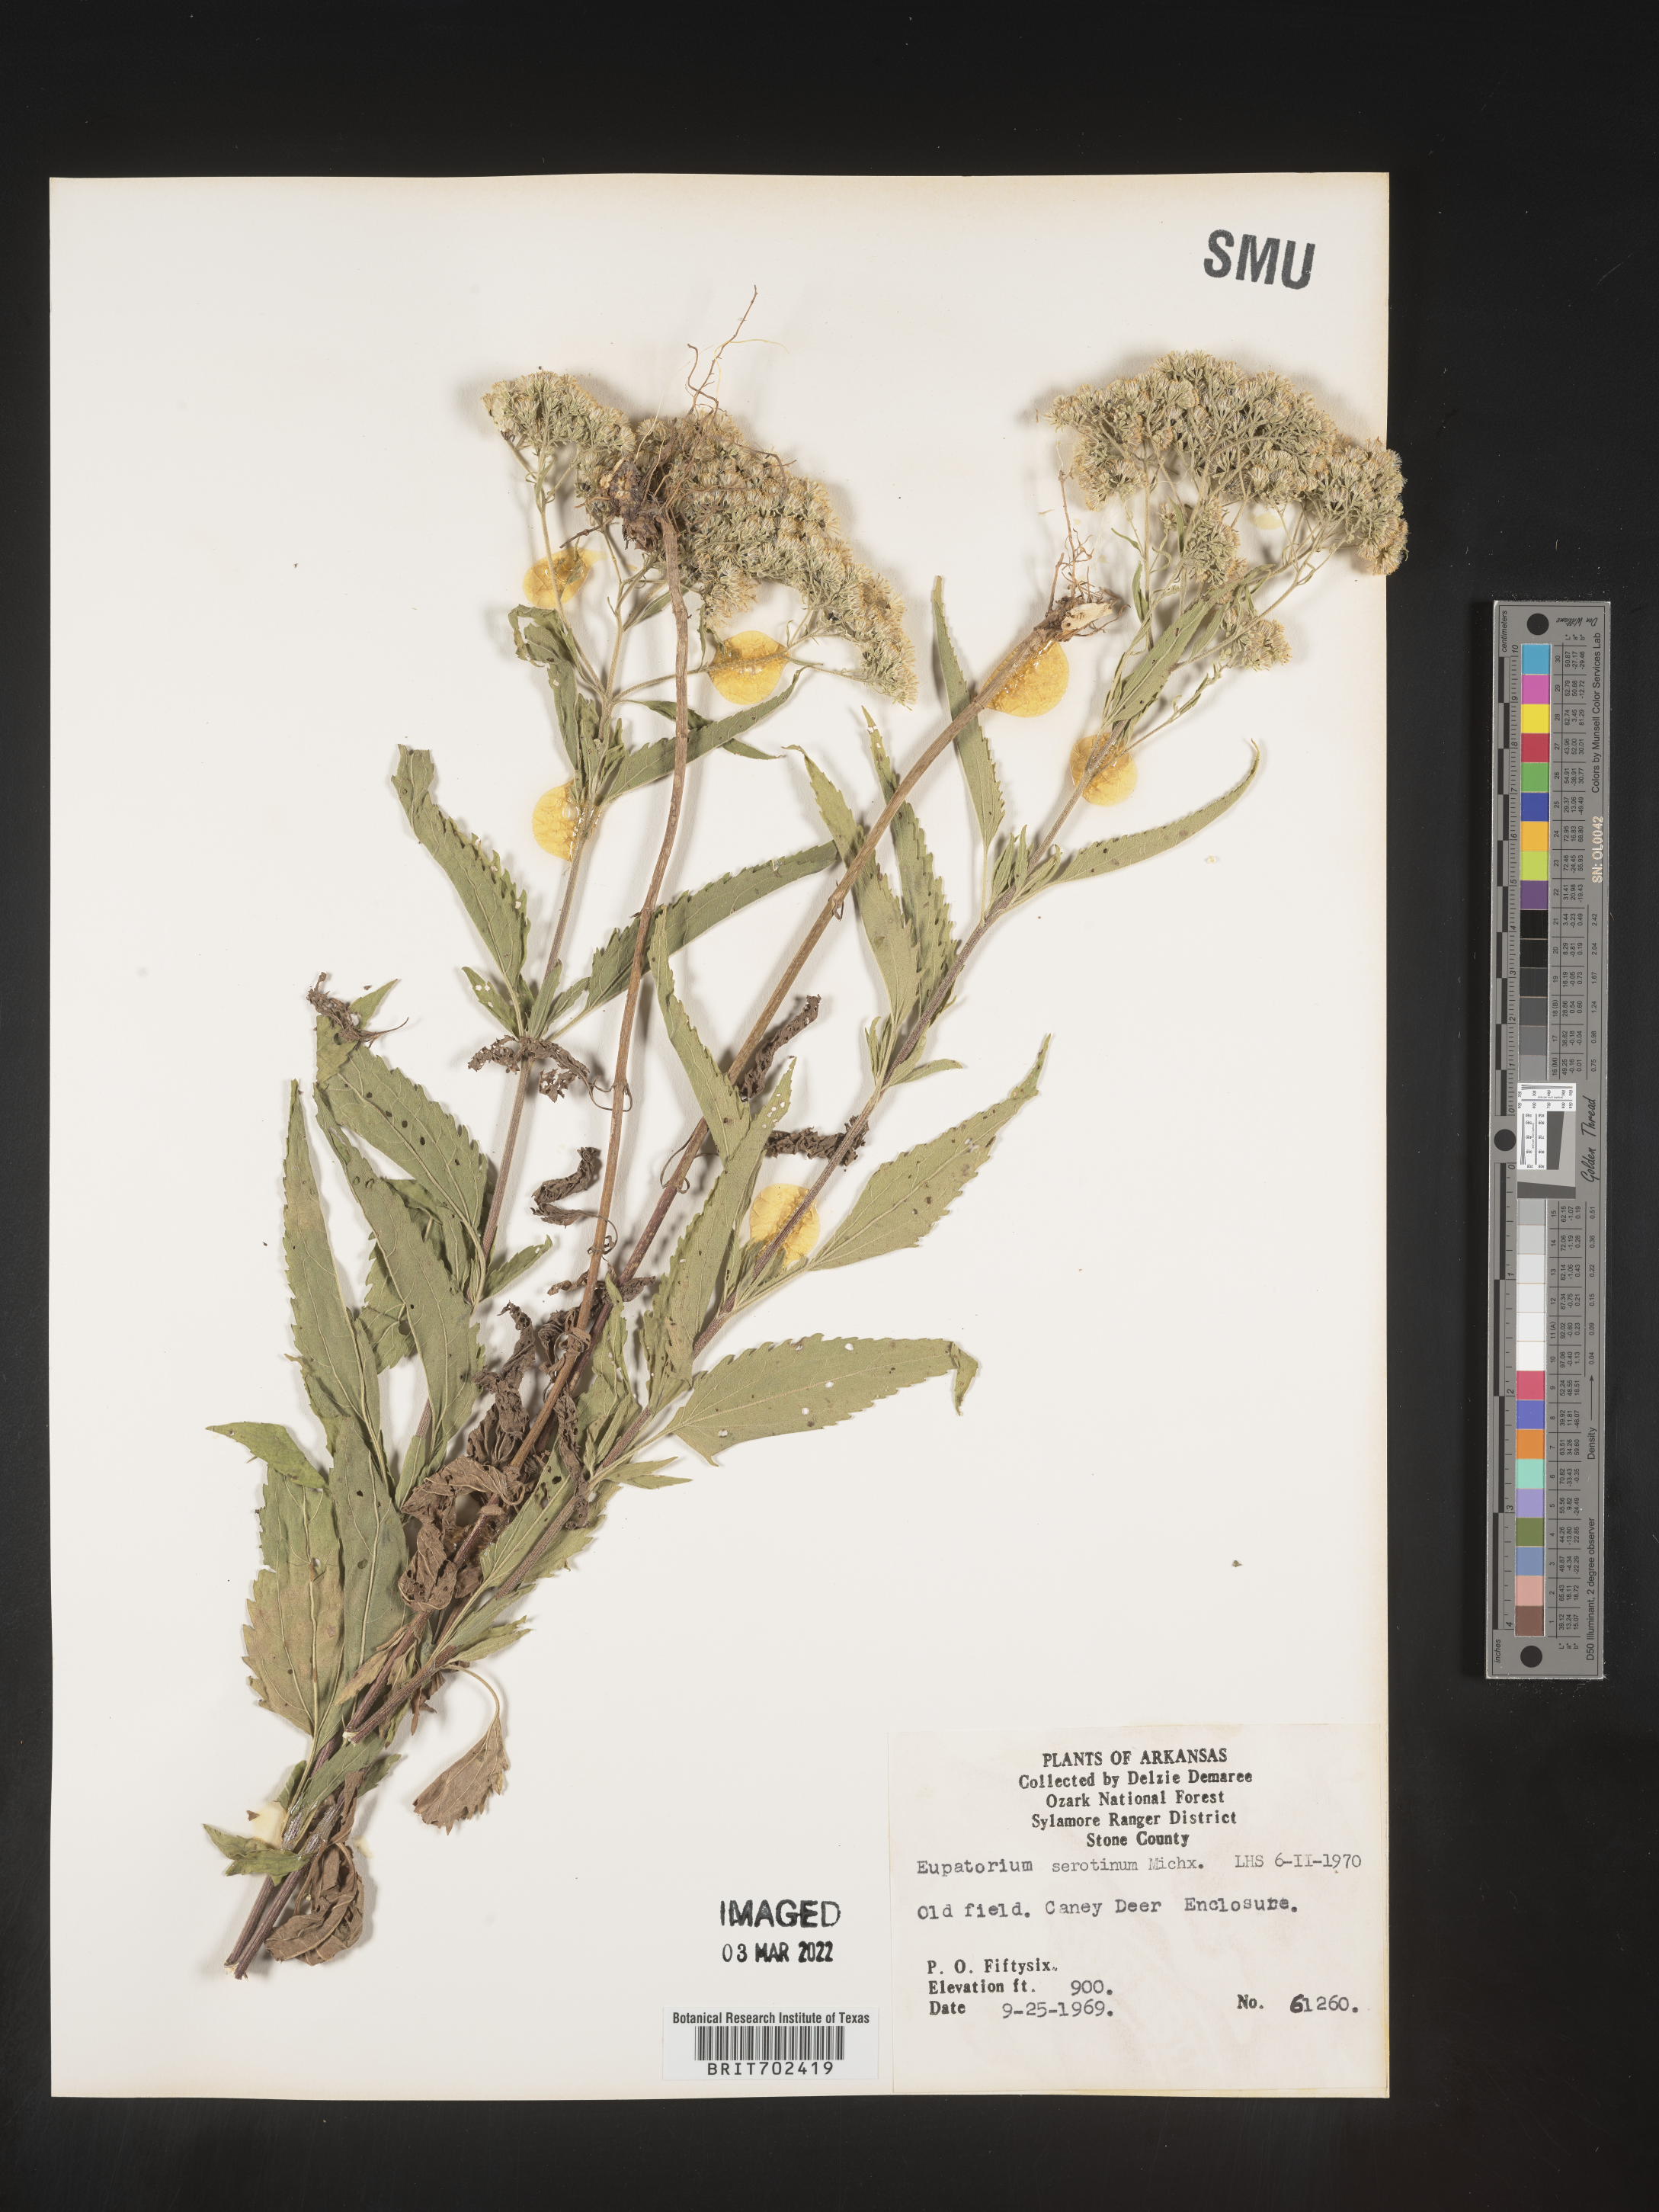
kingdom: Plantae
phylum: Tracheophyta
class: Magnoliopsida
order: Asterales
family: Asteraceae
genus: Eupatorium
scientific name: Eupatorium serotinum
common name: Late boneset
